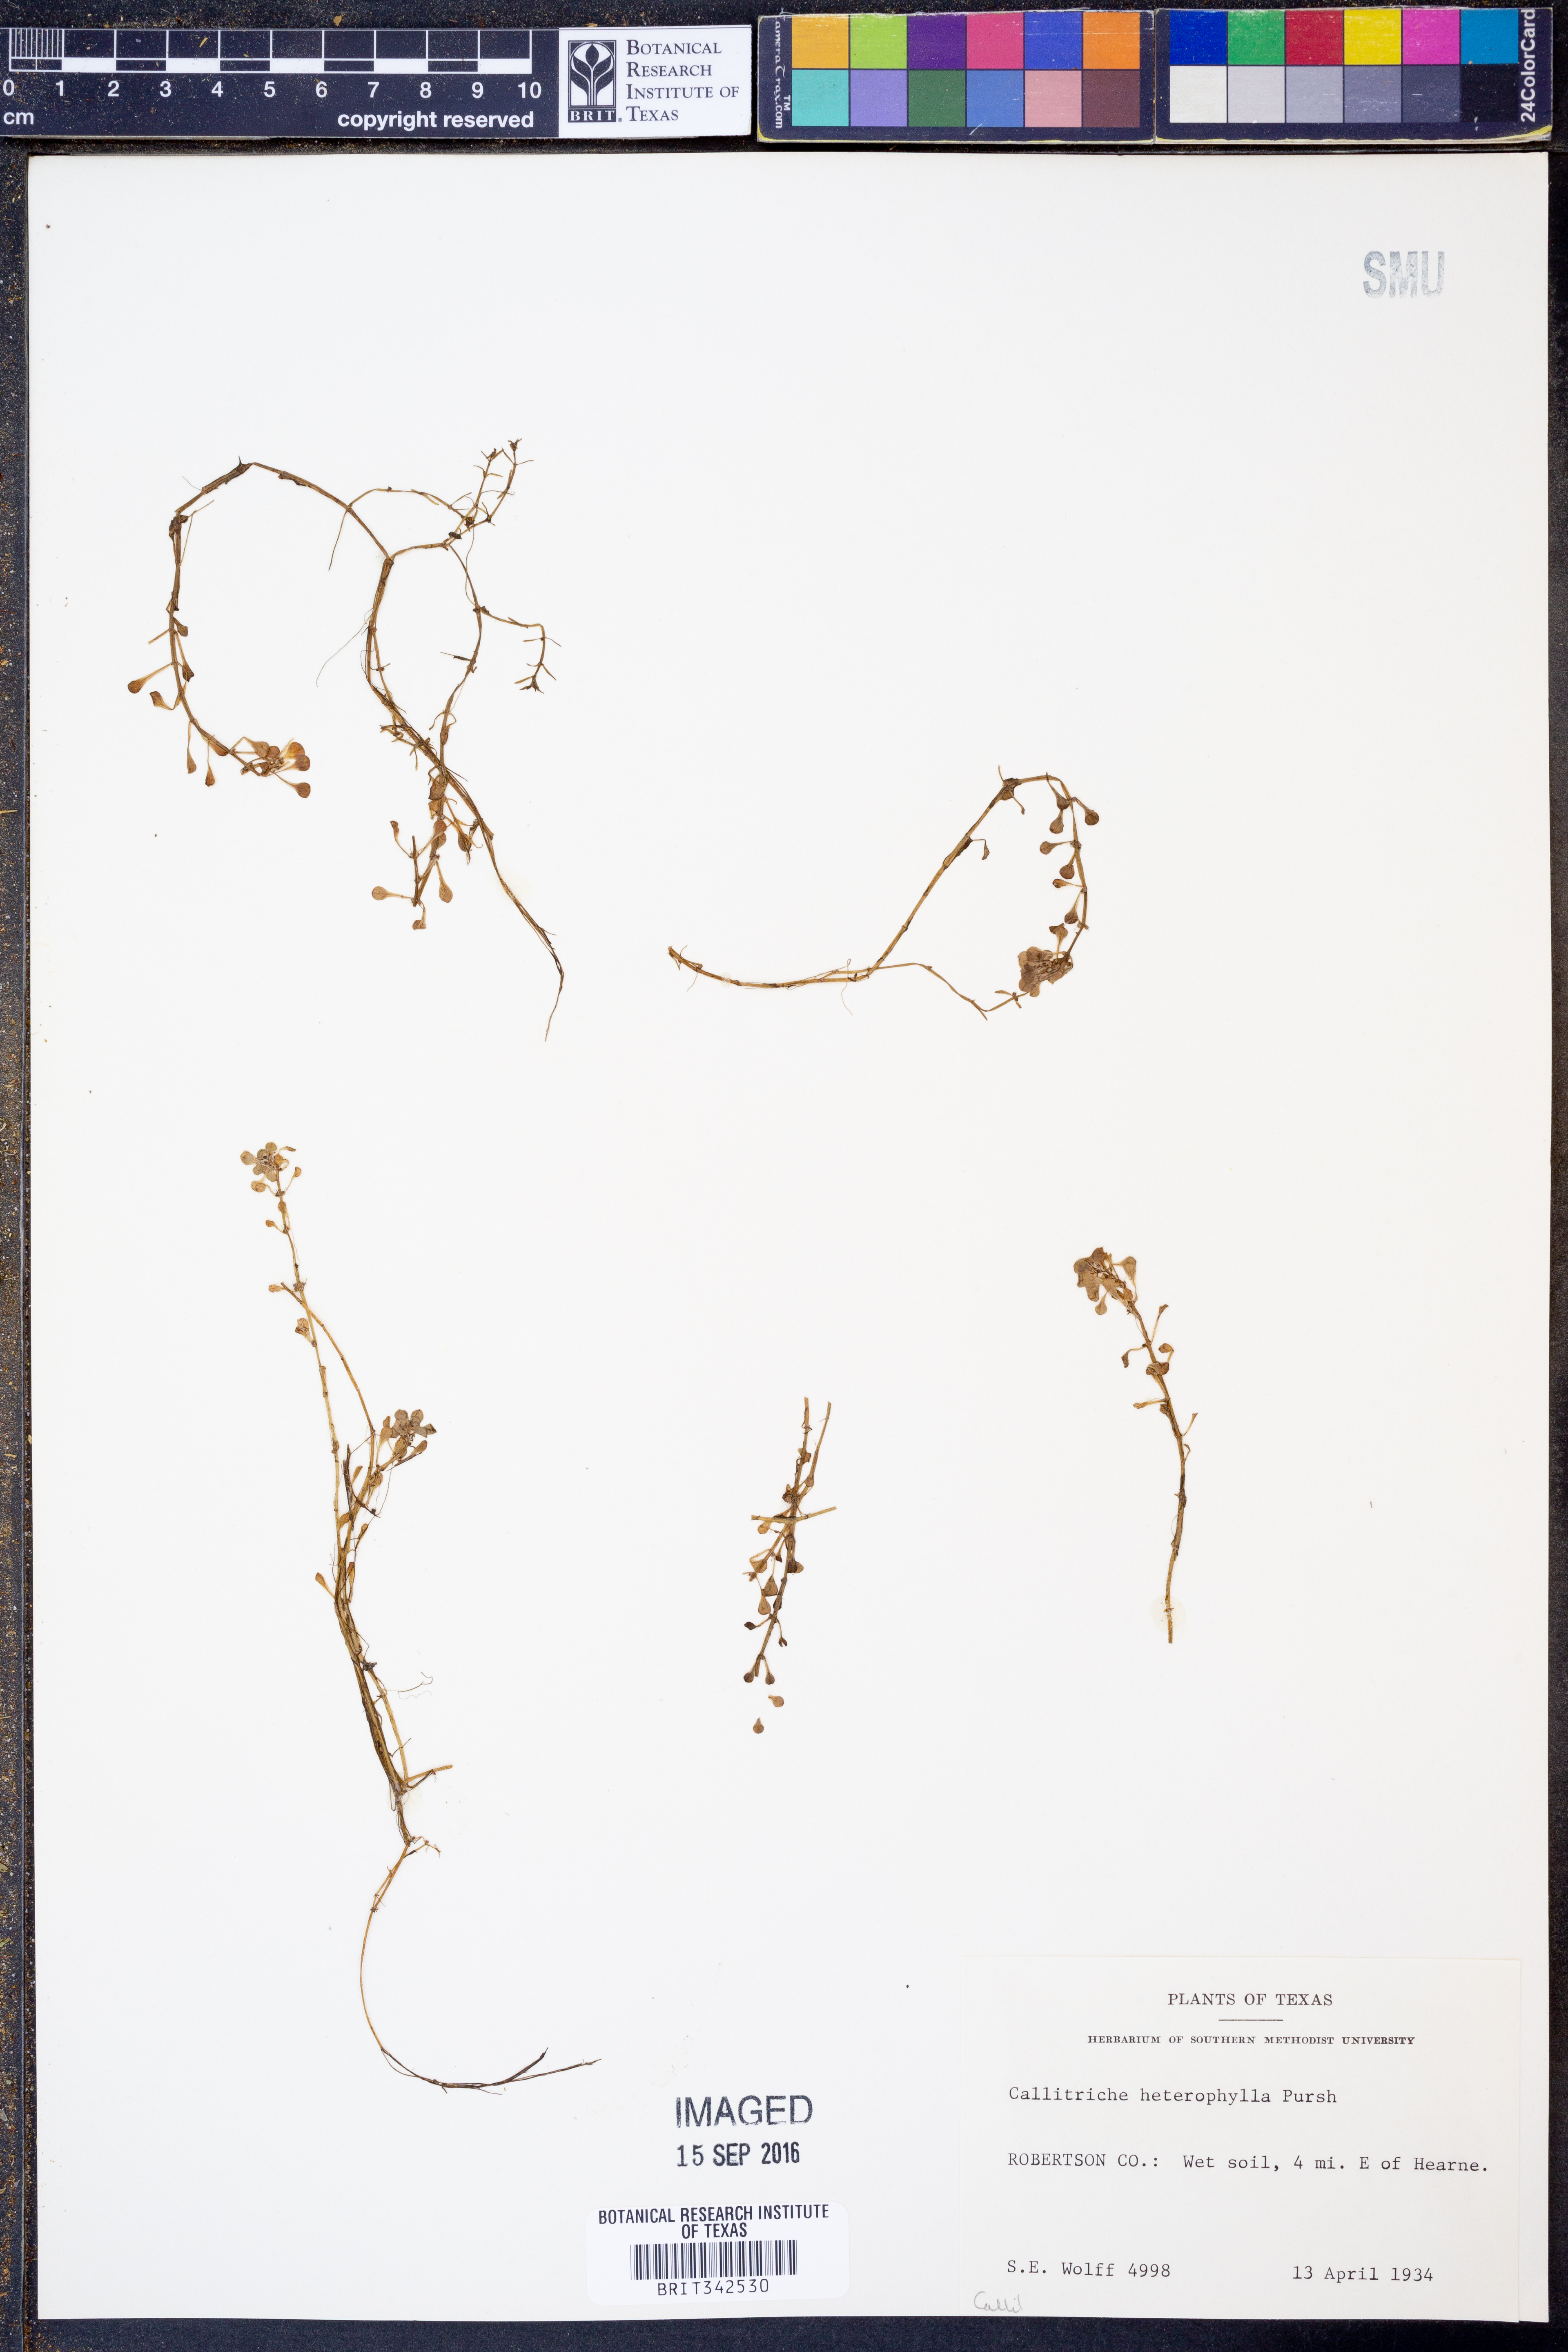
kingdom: Plantae
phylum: Tracheophyta
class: Magnoliopsida
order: Lamiales
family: Plantaginaceae
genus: Callitriche
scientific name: Callitriche heterophylla
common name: Two-headed water-starwort
